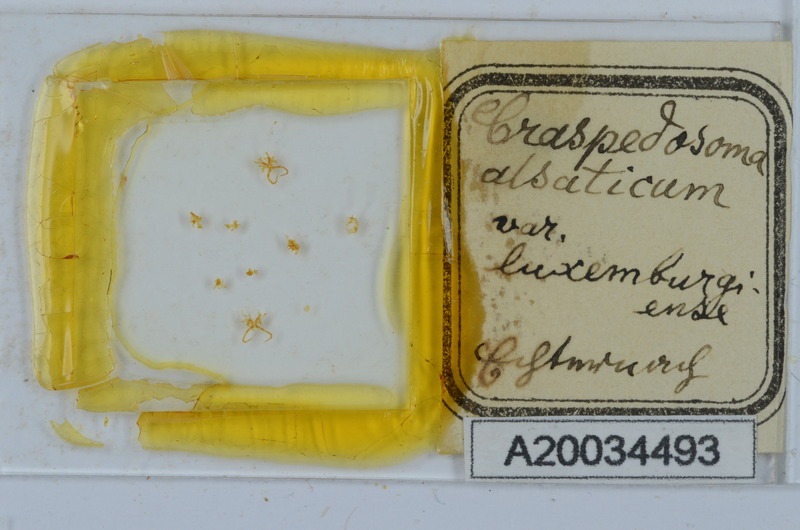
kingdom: Animalia
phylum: Arthropoda
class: Diplopoda
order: Chordeumatida
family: Craspedosomatidae
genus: Craspedosoma
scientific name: Craspedosoma rawlinsii
